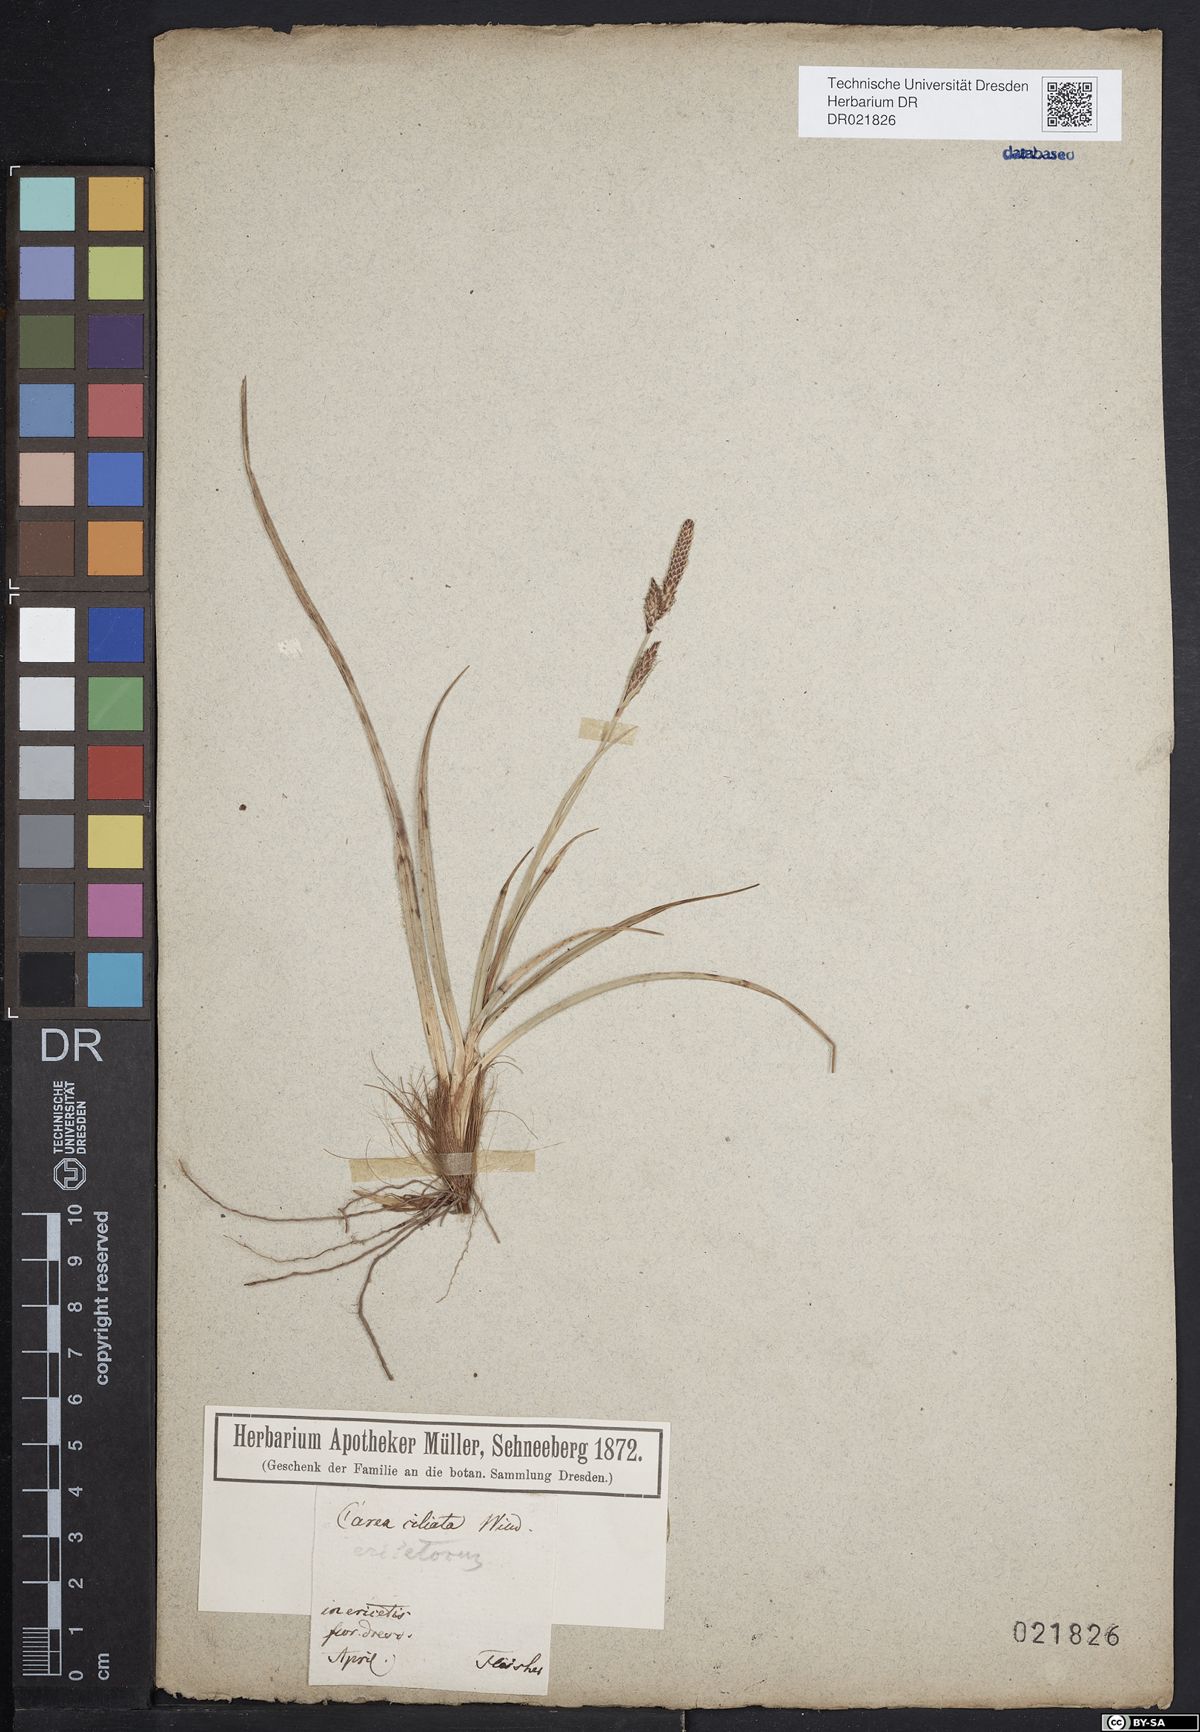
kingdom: Plantae
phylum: Tracheophyta
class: Liliopsida
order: Poales
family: Cyperaceae
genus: Carex
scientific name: Carex ericetorum
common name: Rare spring-sedge
